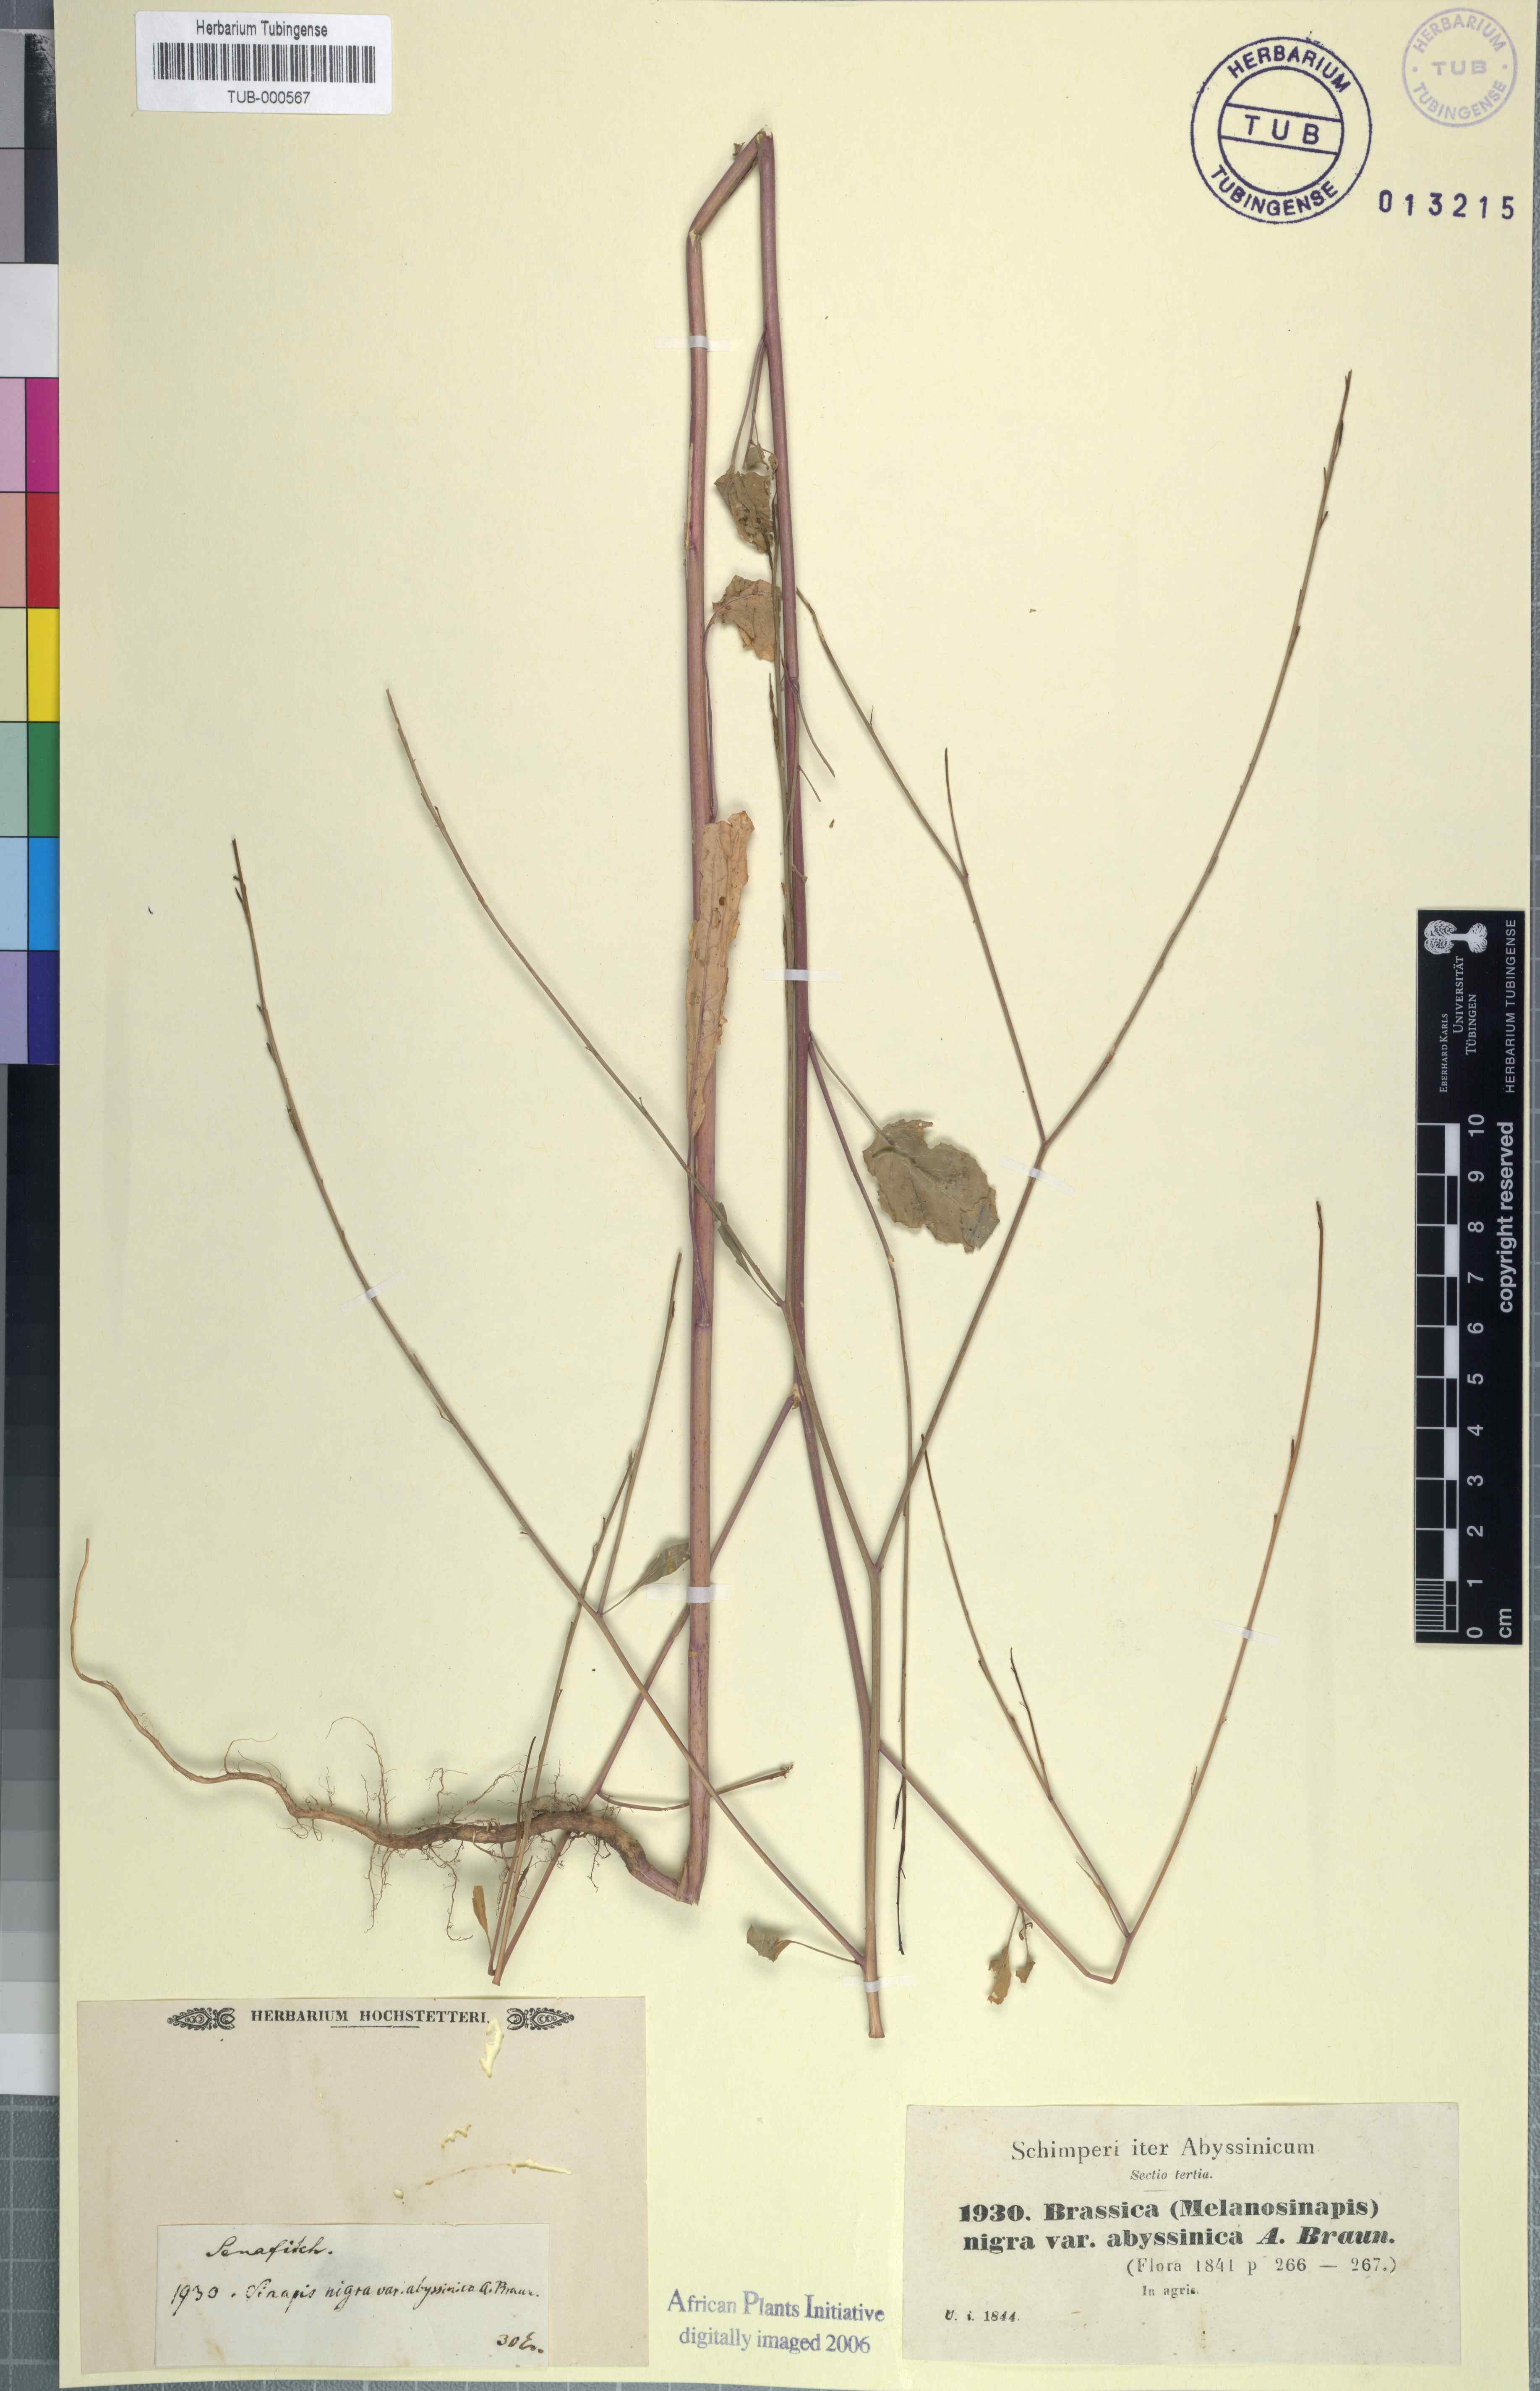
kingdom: Plantae
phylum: Tracheophyta
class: Magnoliopsida
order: Brassicales
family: Brassicaceae
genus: Brassica
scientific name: Brassica nigra
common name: Black mustard
